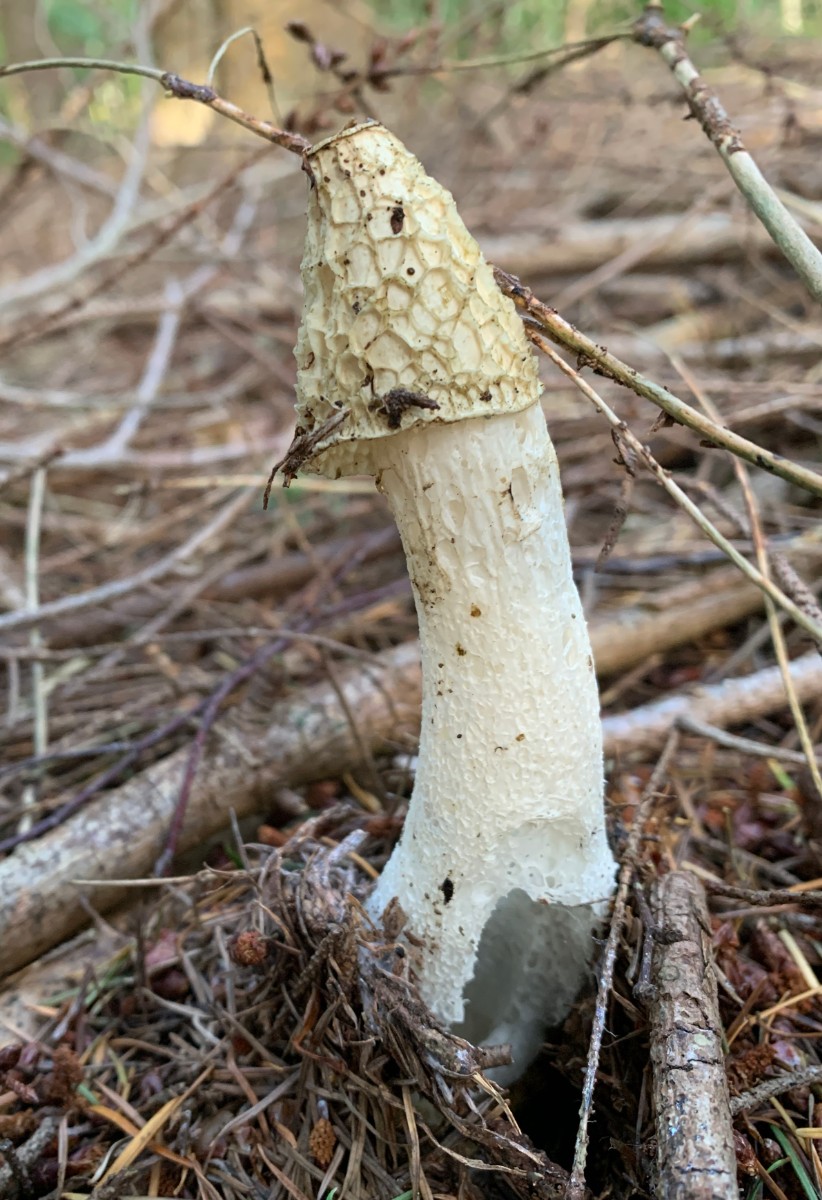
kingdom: Fungi
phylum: Basidiomycota
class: Agaricomycetes
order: Phallales
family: Phallaceae
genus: Phallus
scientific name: Phallus impudicus
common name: almindelig stinksvamp
